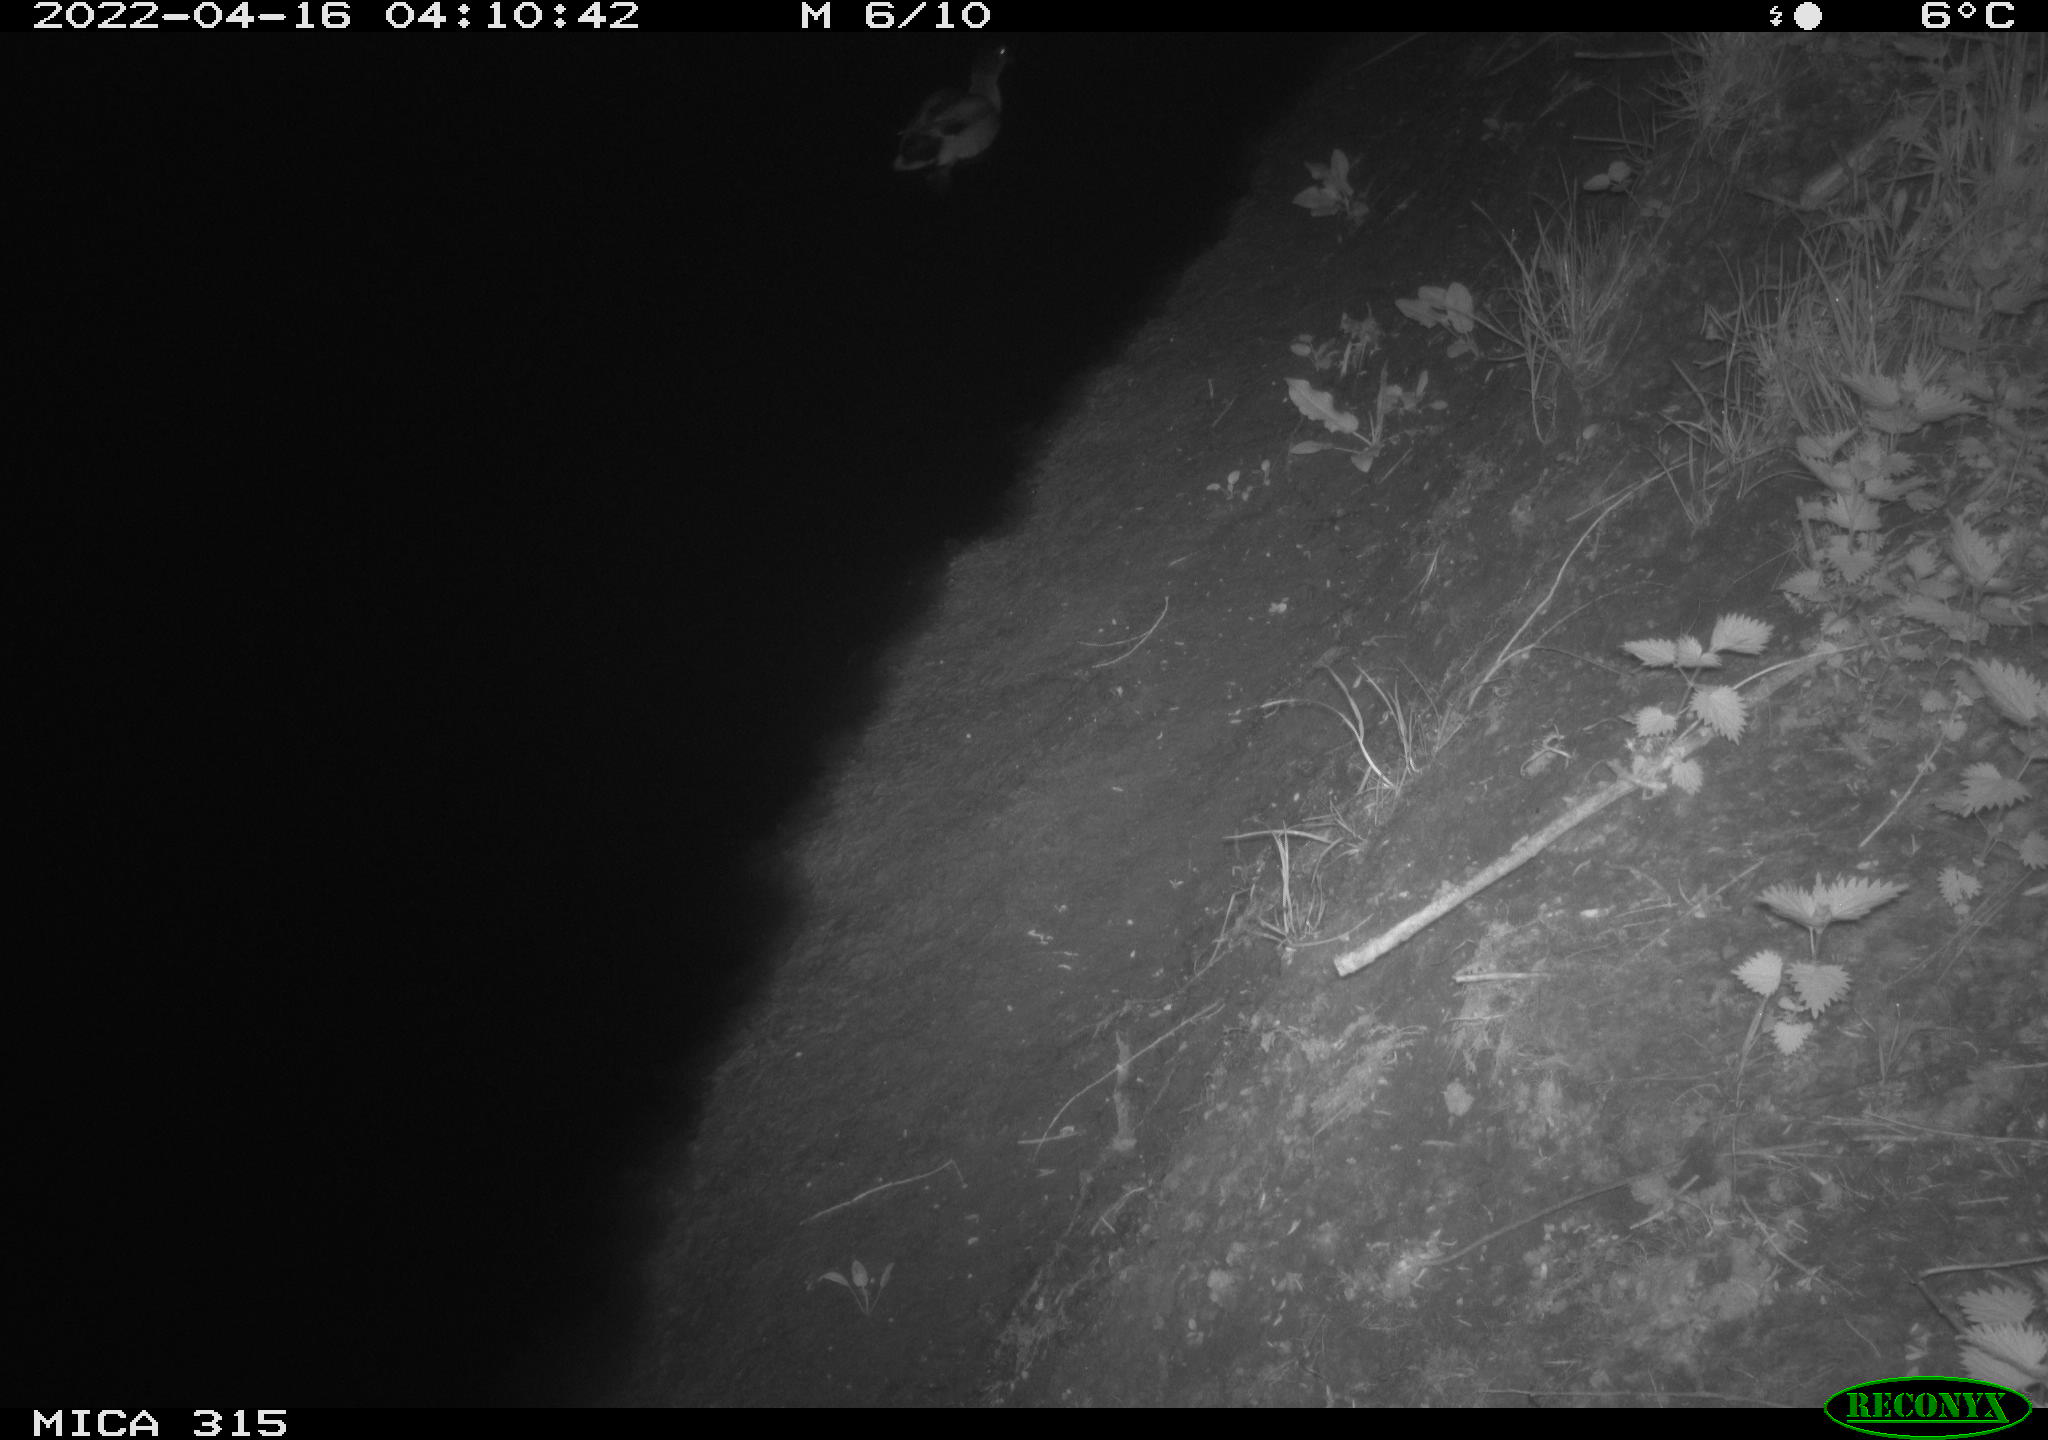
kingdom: Animalia
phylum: Chordata
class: Aves
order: Anseriformes
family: Anatidae
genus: Anas
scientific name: Anas platyrhynchos
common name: Mallard
